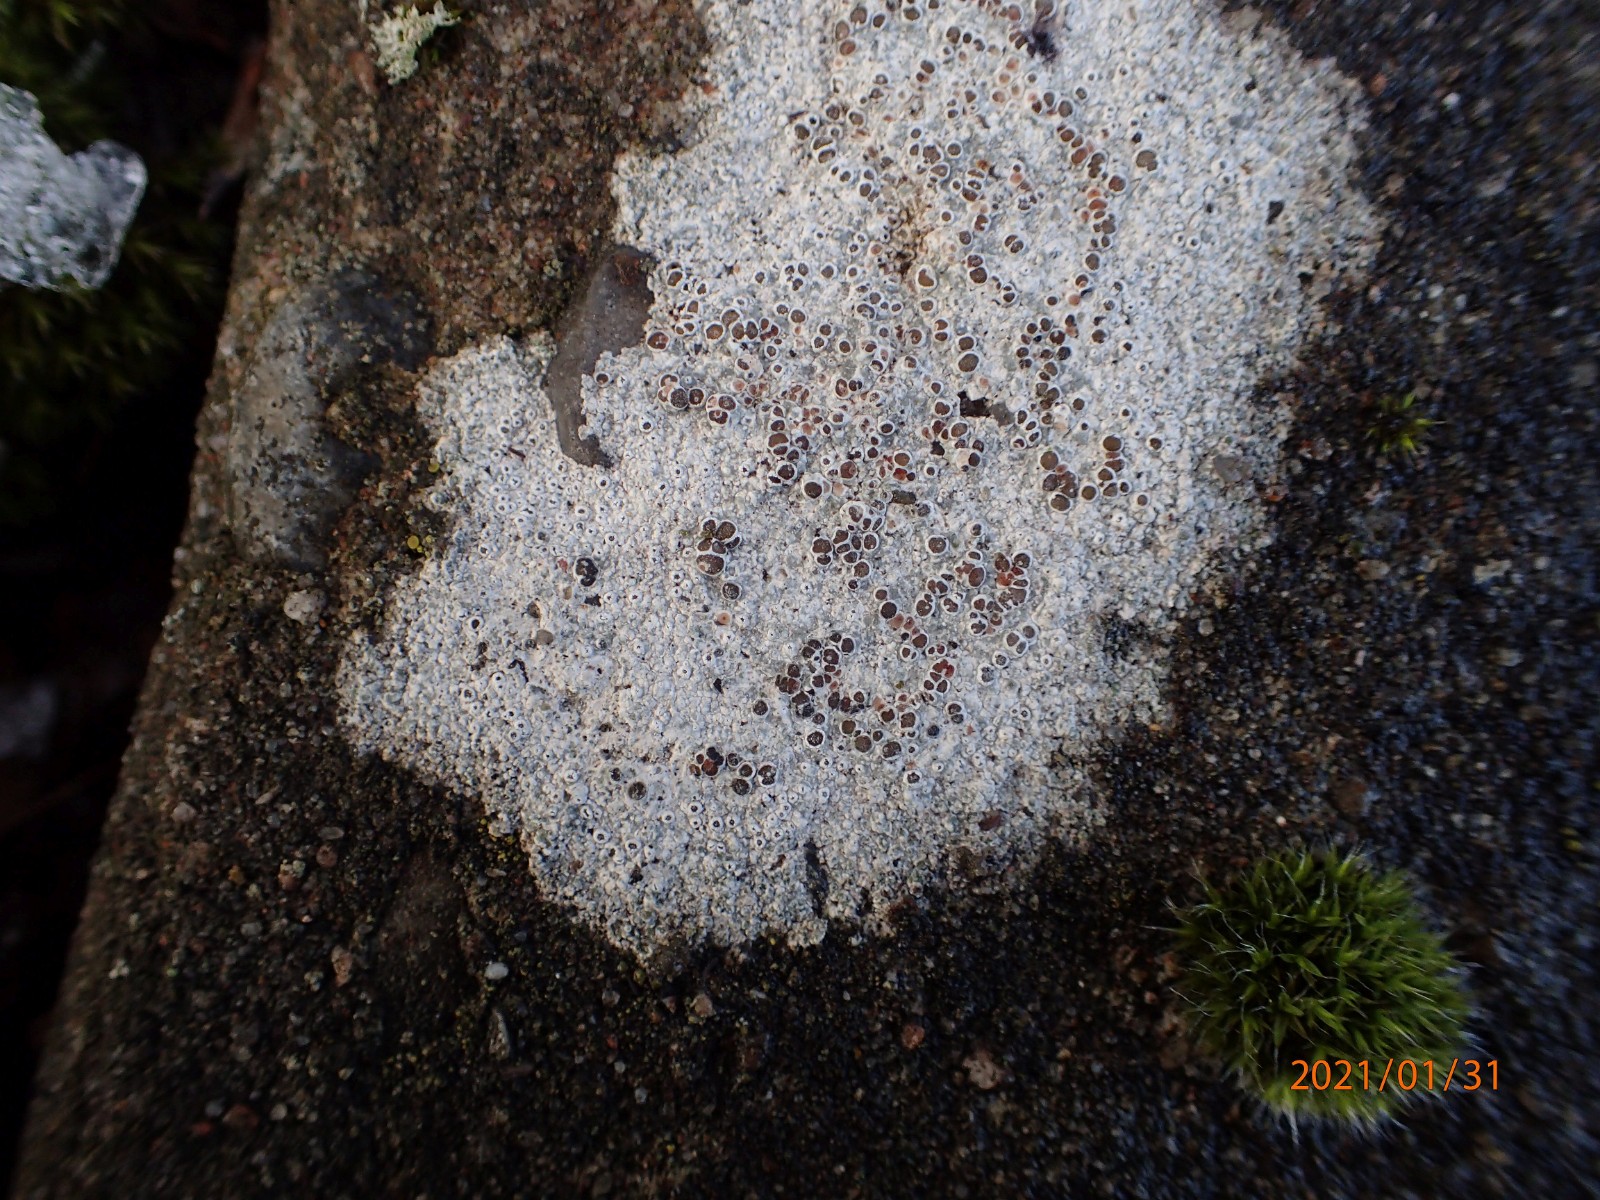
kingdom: Fungi
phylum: Ascomycota
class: Lecanoromycetes
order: Lecanorales
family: Lecanoraceae
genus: Lecanora
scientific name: Lecanora campestris
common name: mur-kantskivelav
